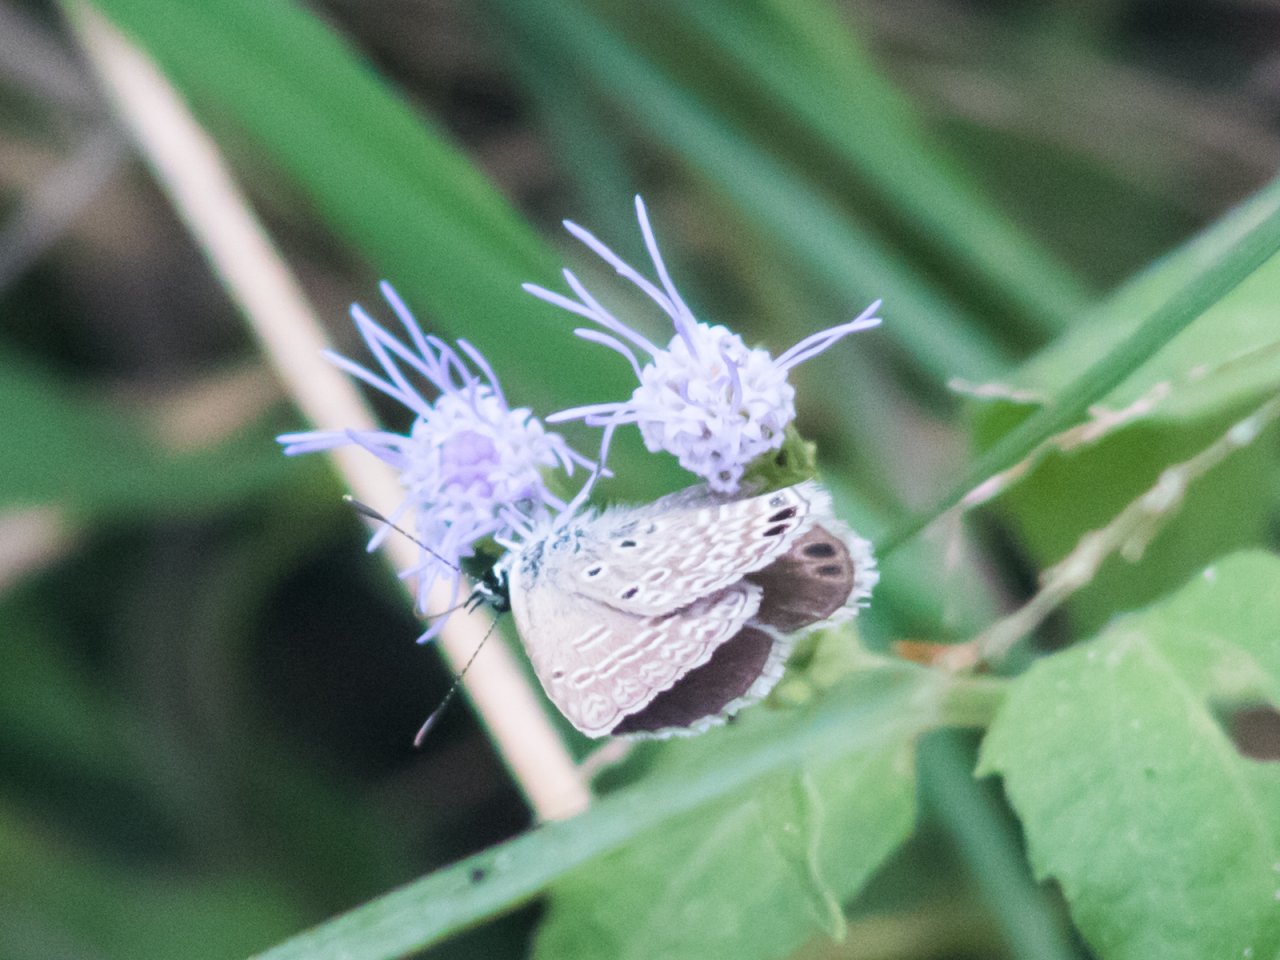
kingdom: Animalia
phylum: Arthropoda
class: Insecta
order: Lepidoptera
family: Lycaenidae
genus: Hemiargus
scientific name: Hemiargus ceraunus
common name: Ceraunus Blue
